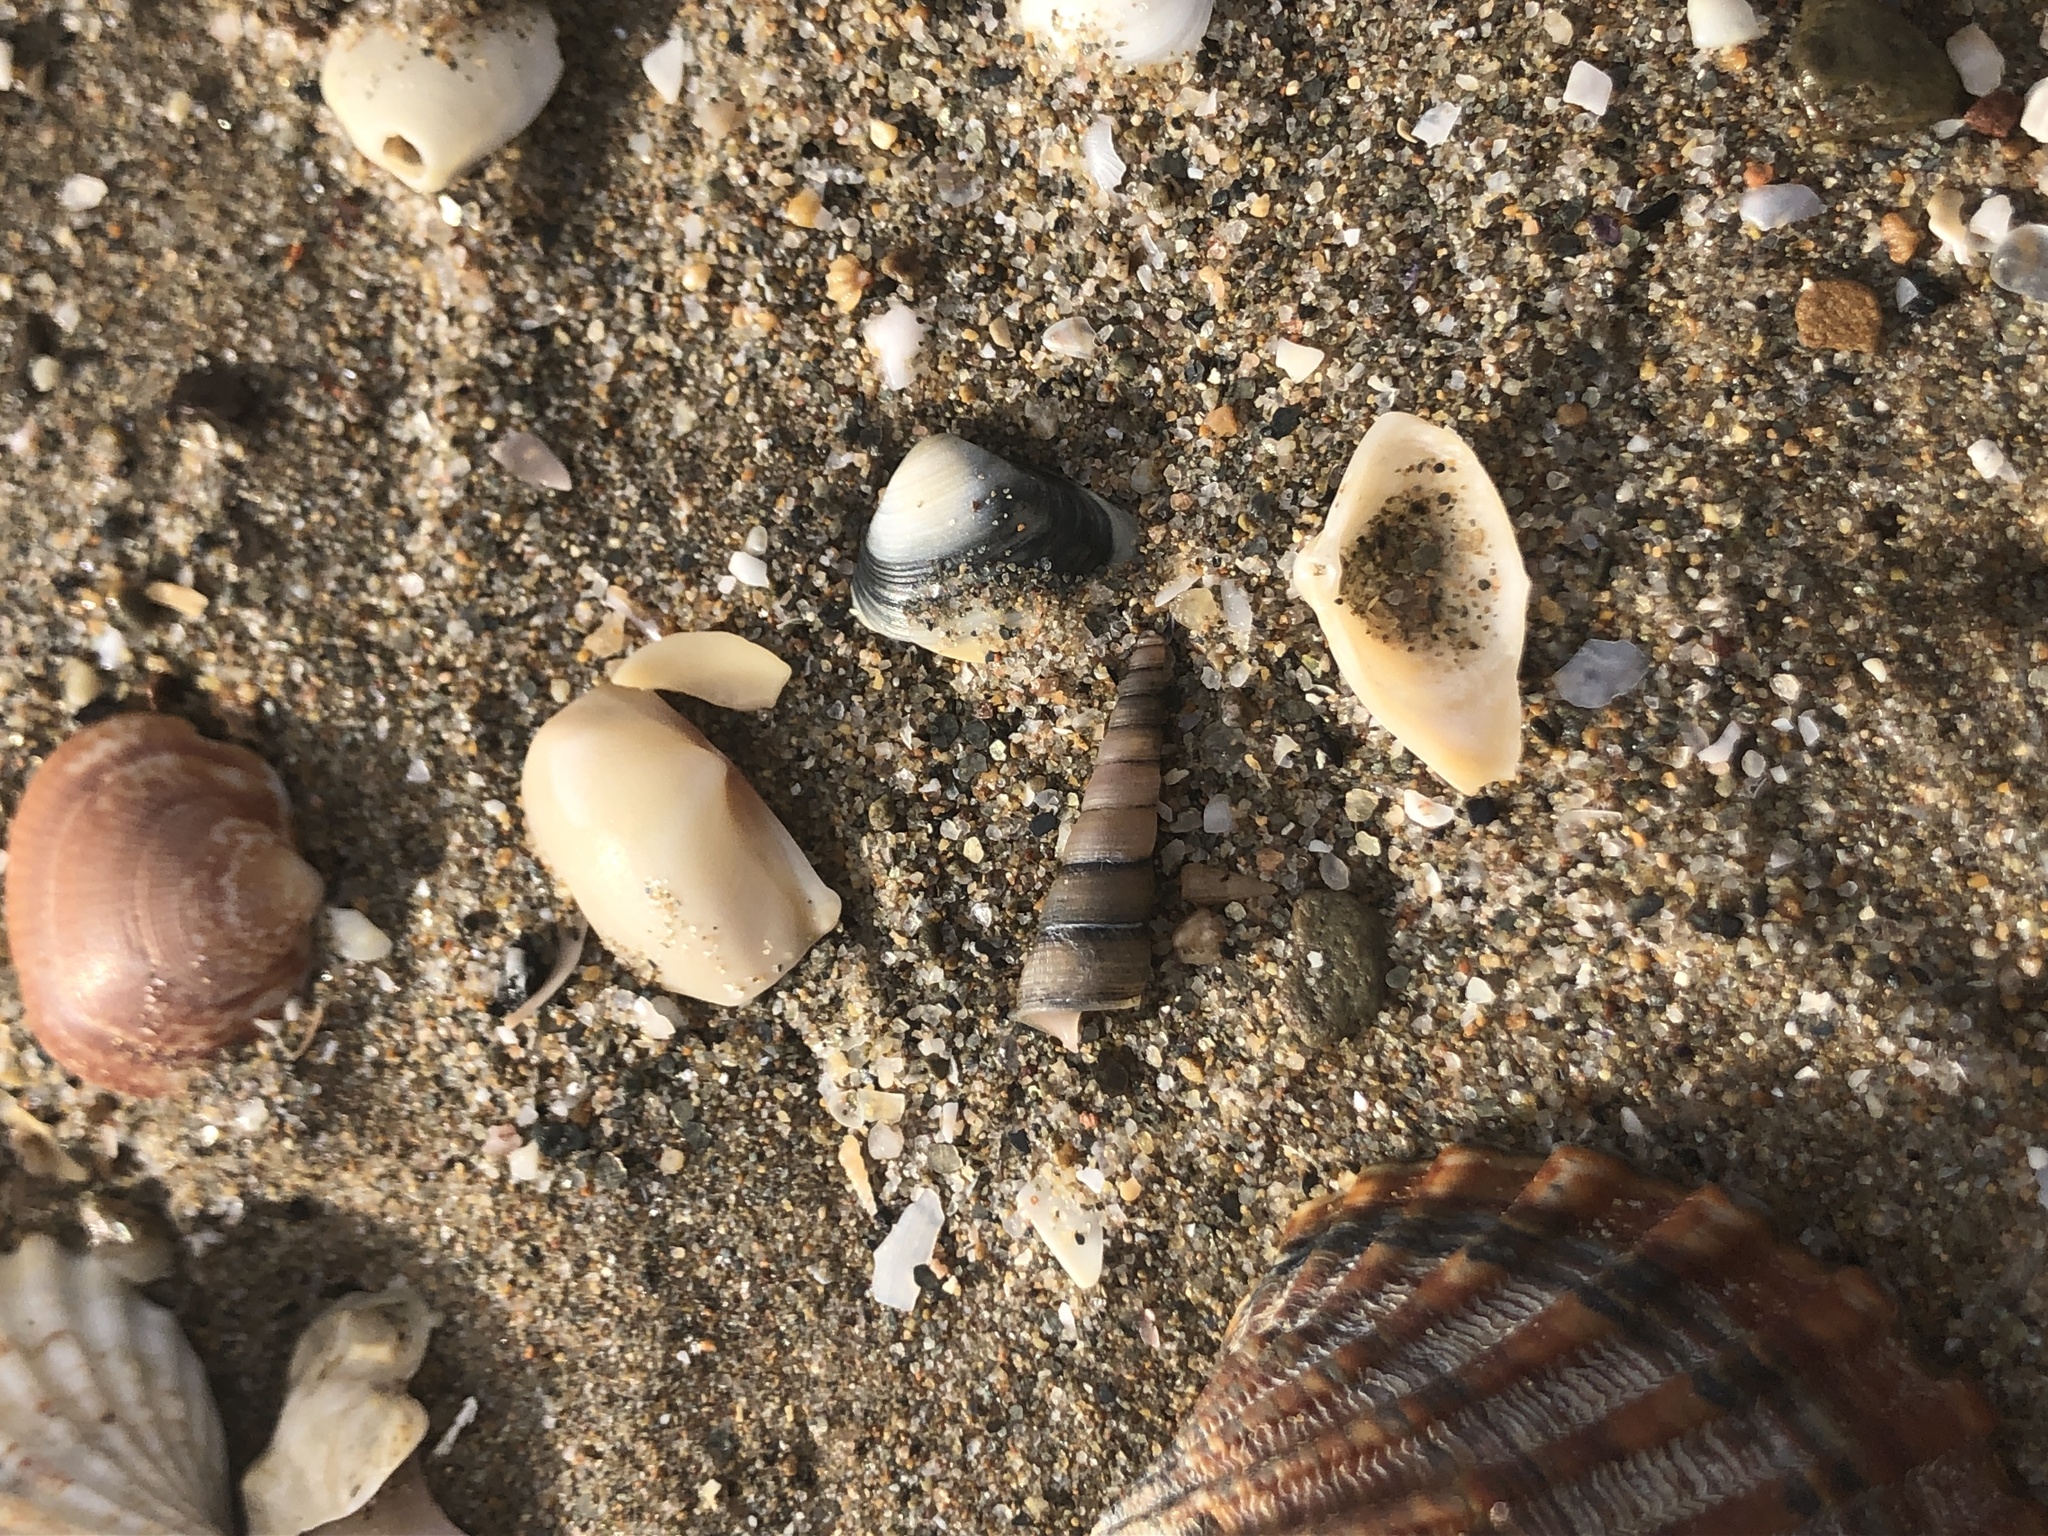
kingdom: Animalia
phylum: Mollusca
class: Gastropoda
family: Turritellidae
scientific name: Turritellidae
